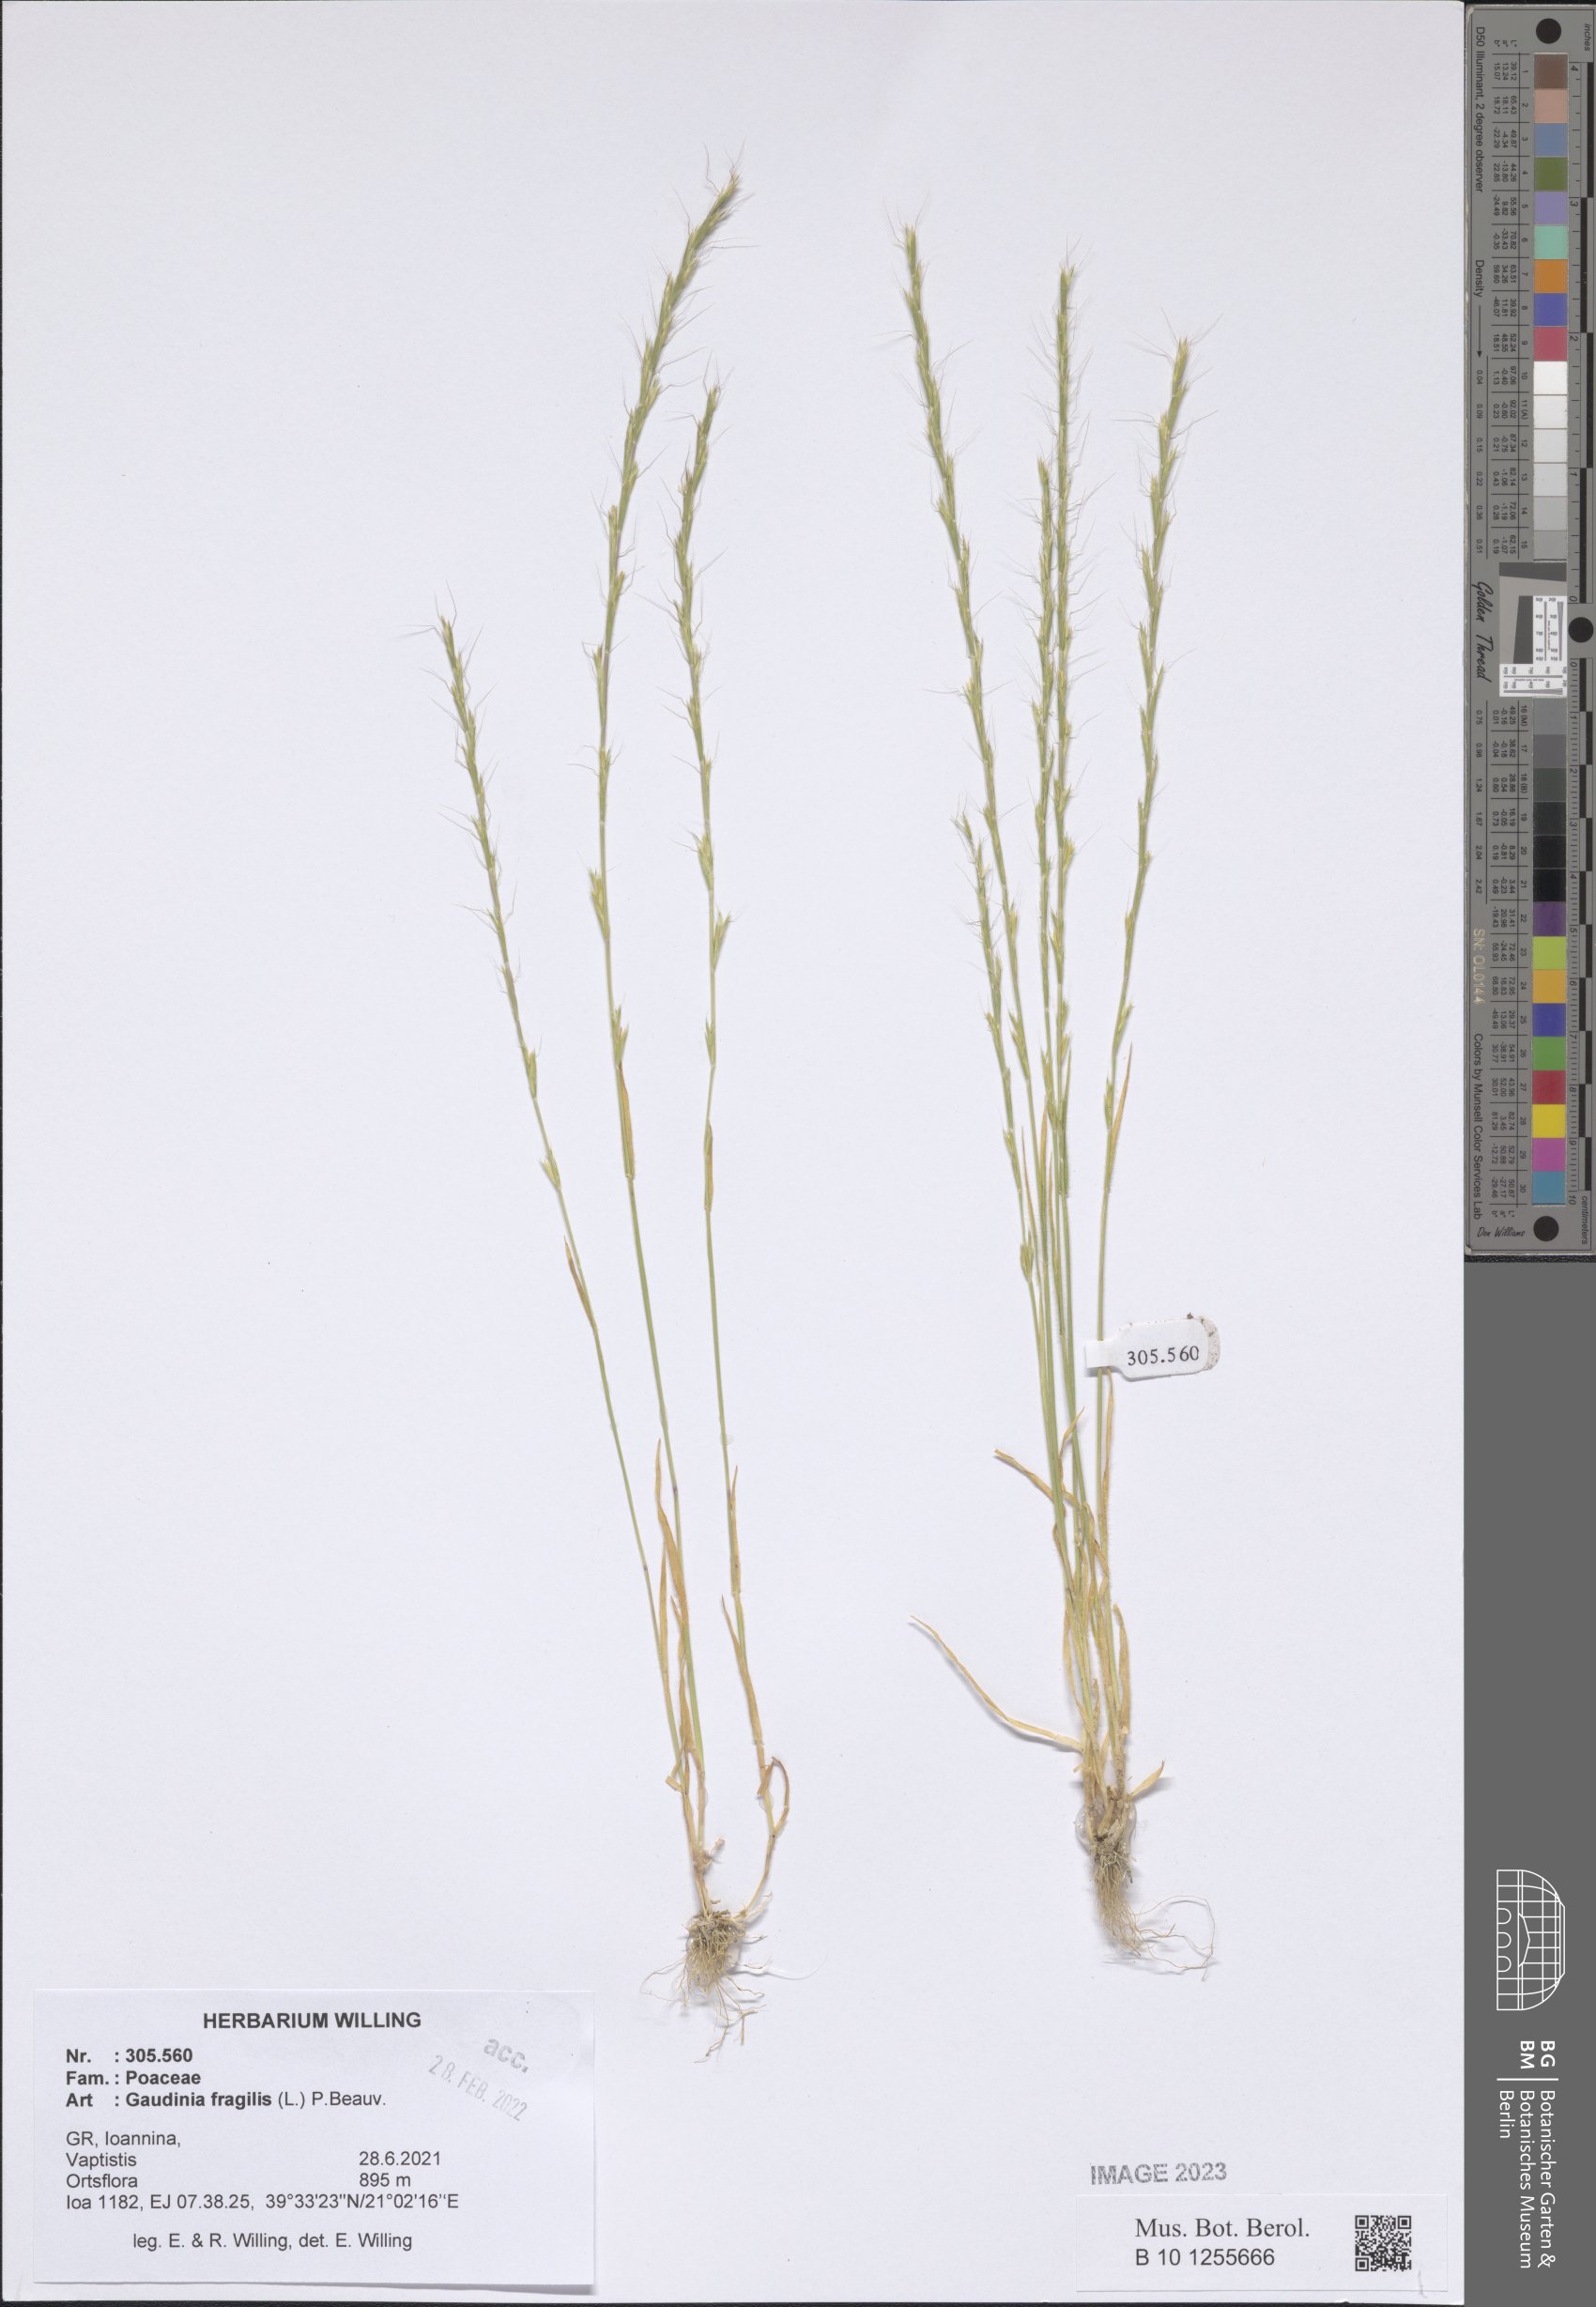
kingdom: Plantae
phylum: Tracheophyta
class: Liliopsida
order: Poales
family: Poaceae
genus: Gaudinia
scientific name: Gaudinia fragilis
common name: French oat-grass
